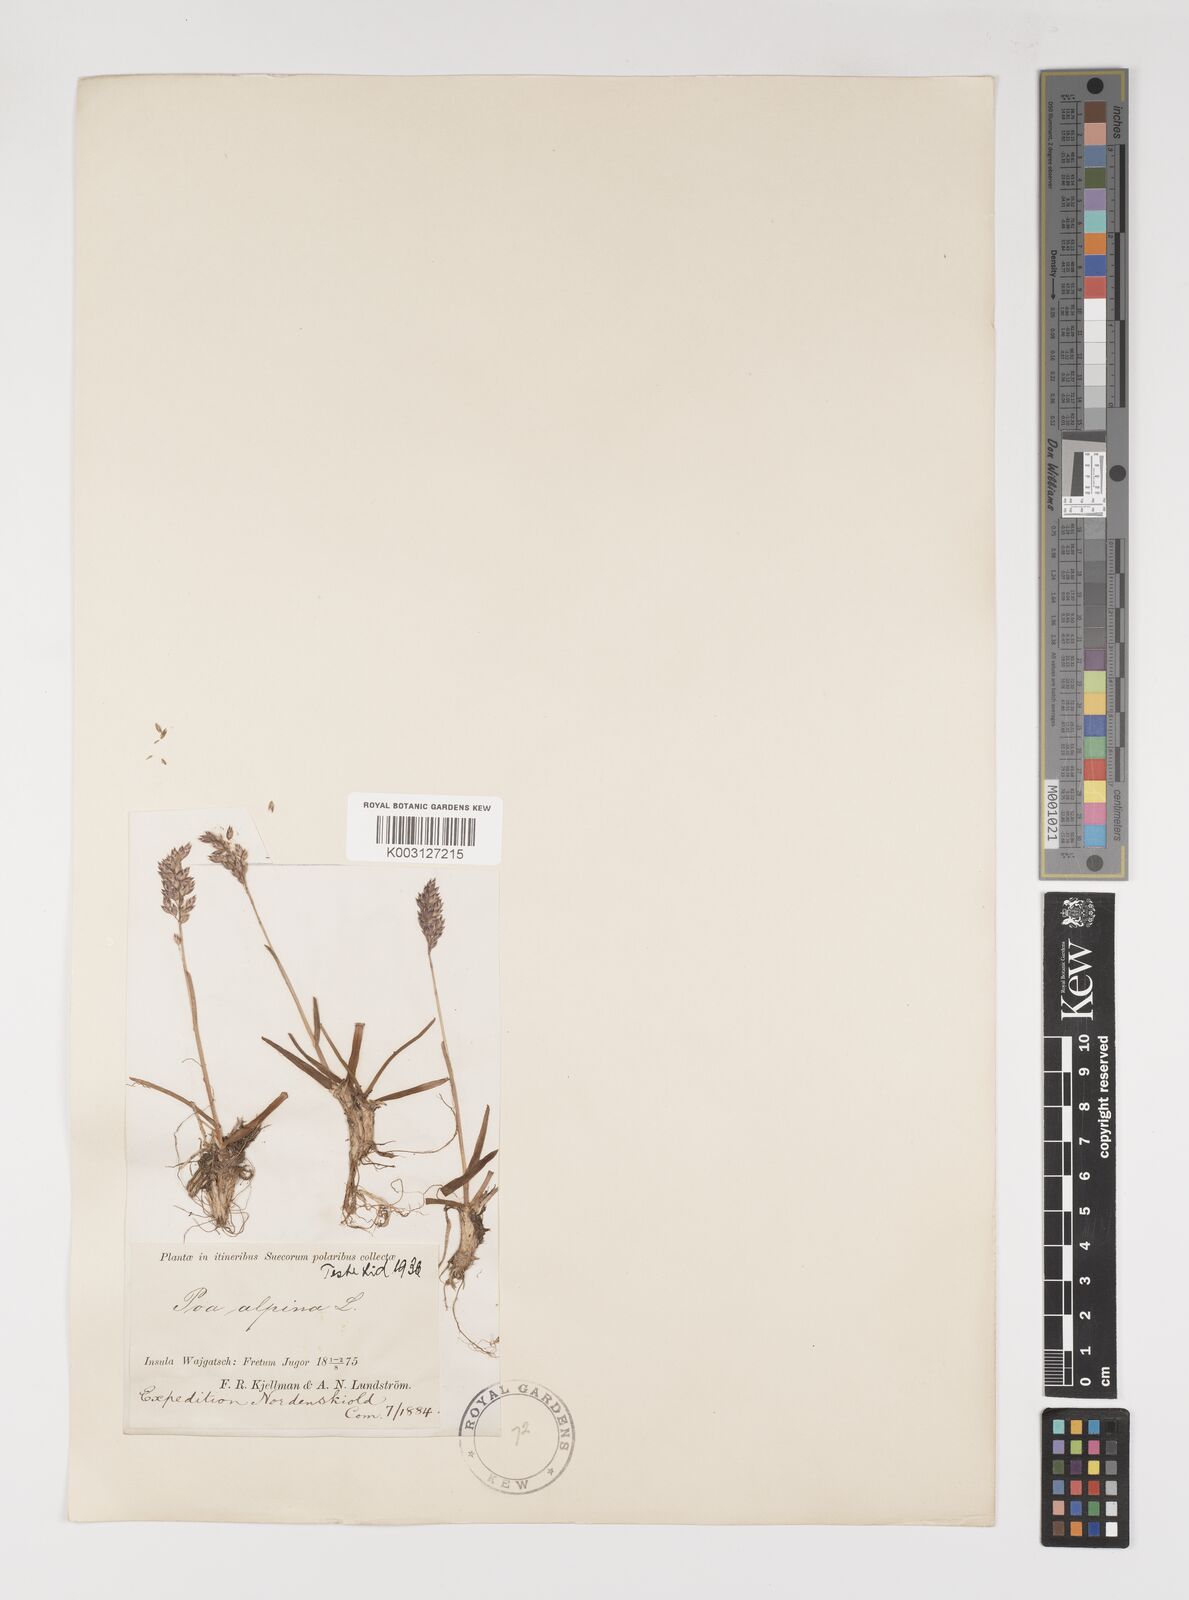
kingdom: Plantae
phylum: Tracheophyta
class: Liliopsida
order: Poales
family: Poaceae
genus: Poa
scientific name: Poa alpina
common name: Alpine bluegrass
